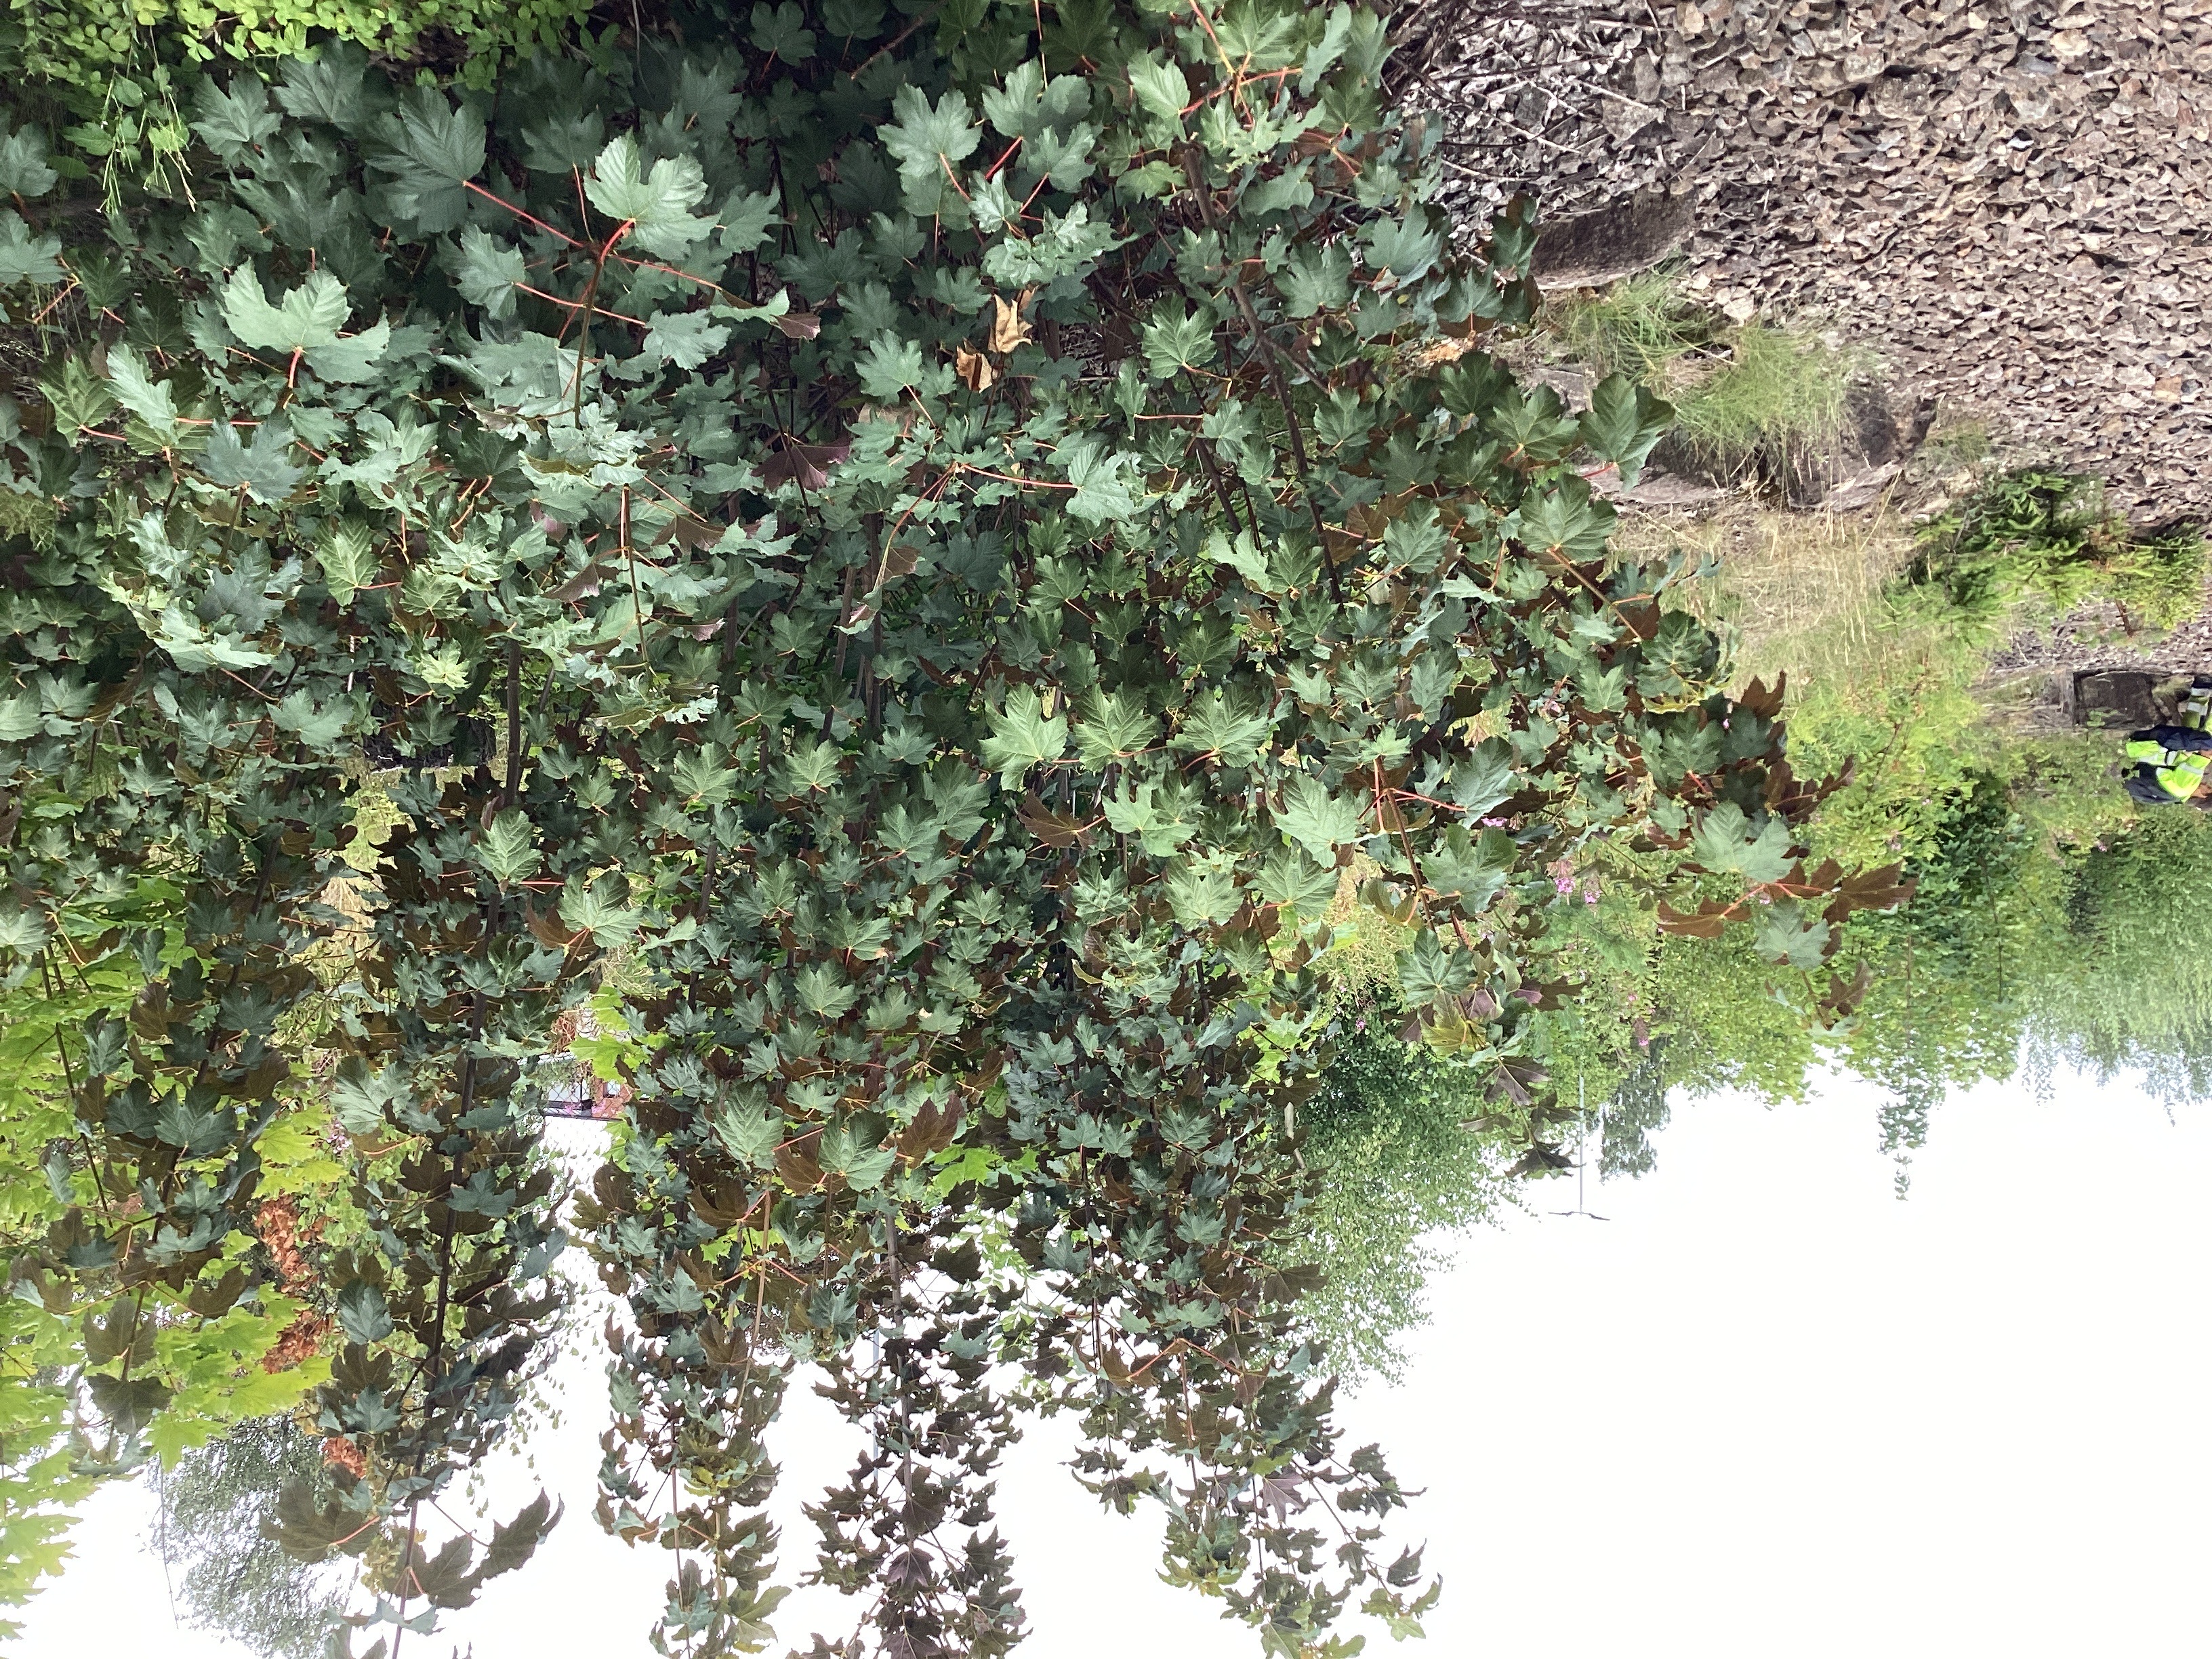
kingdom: Plantae
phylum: Tracheophyta
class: Magnoliopsida
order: Sapindales
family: Sapindaceae
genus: Acer
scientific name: Acer pseudoplatanus
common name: platanlønn
